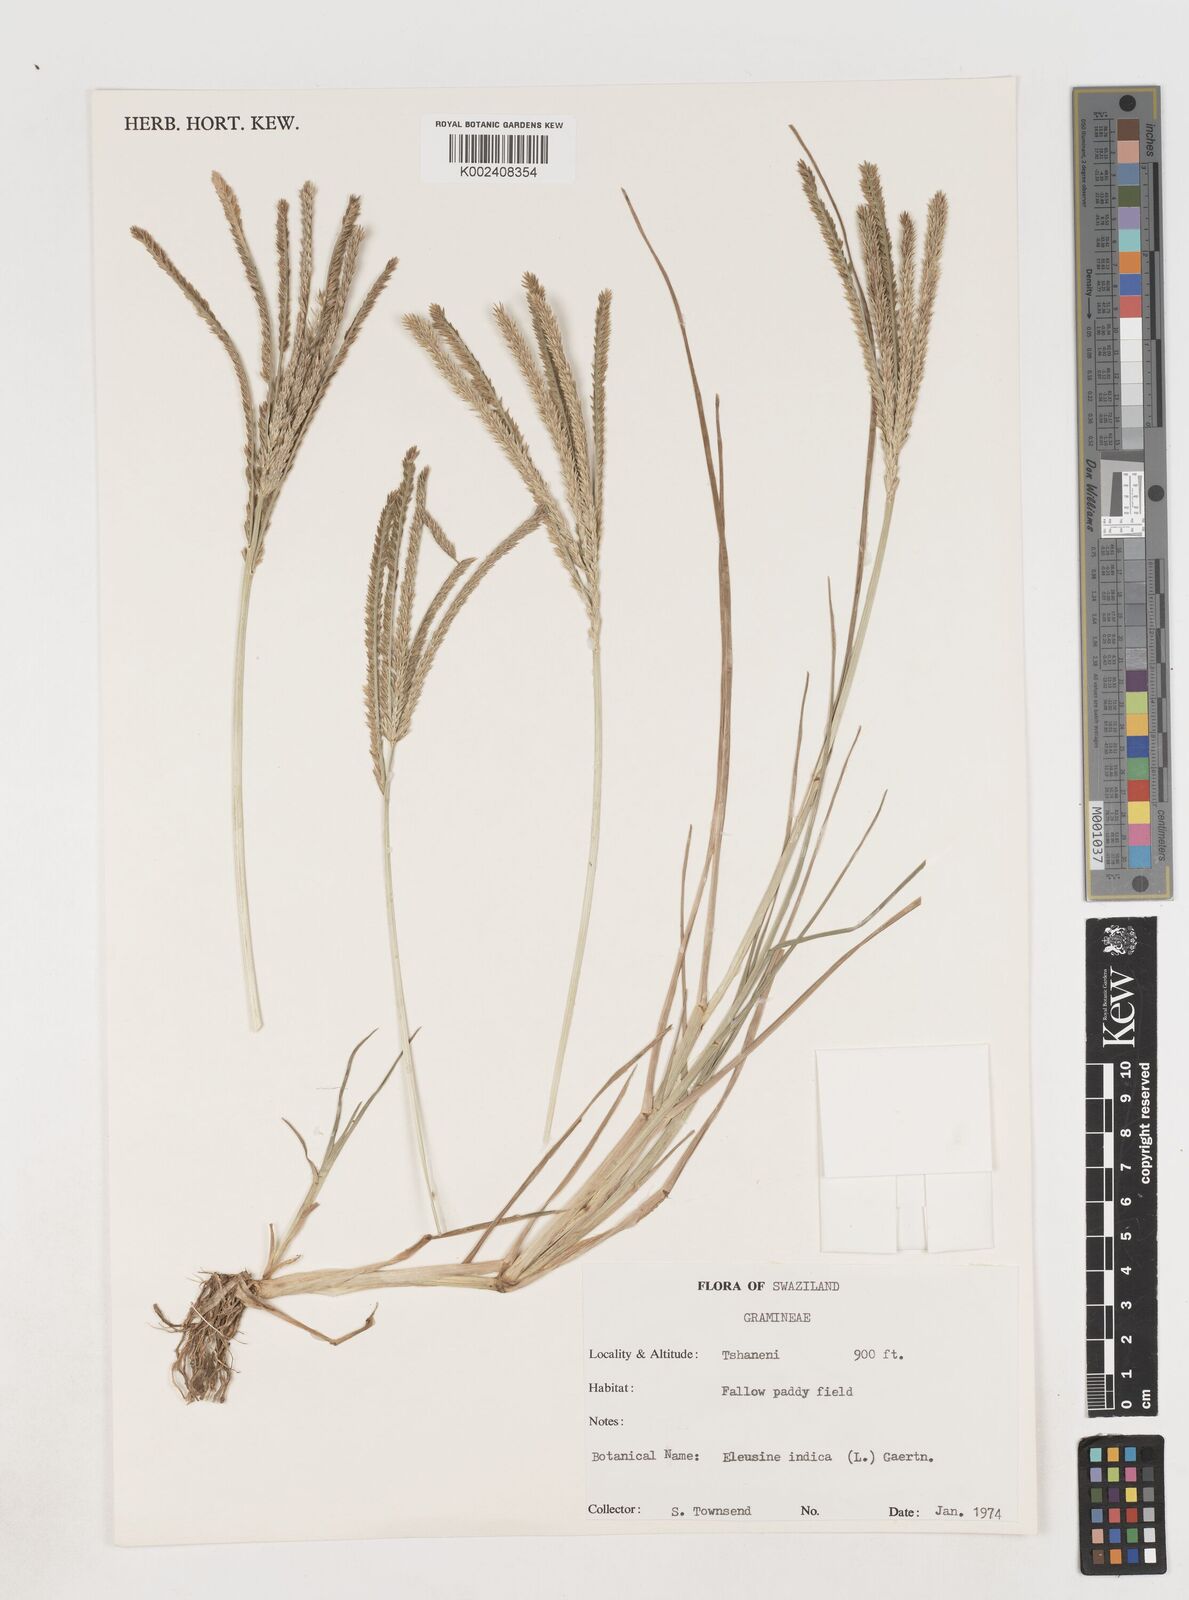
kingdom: Plantae
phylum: Tracheophyta
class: Liliopsida
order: Poales
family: Poaceae
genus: Eleusine
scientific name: Eleusine indica
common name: Yard-grass
